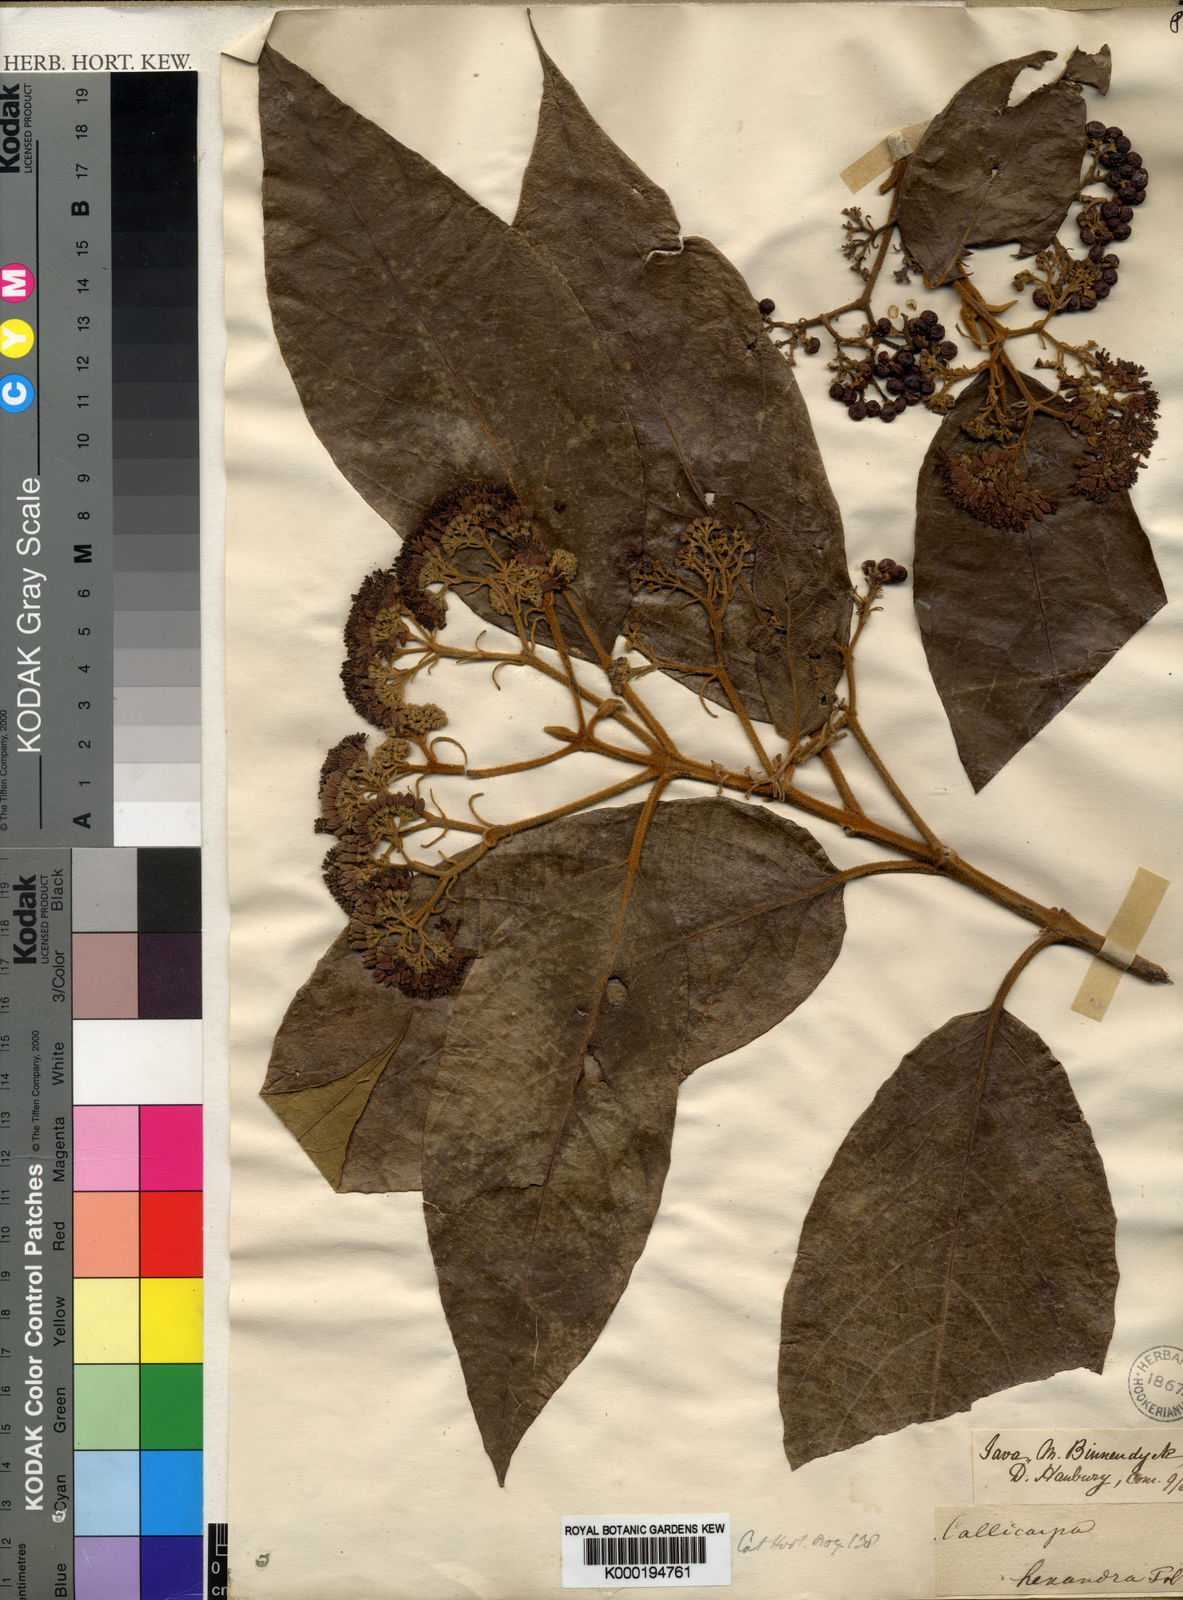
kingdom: Plantae
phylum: Tracheophyta
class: Magnoliopsida
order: Lamiales
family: Lamiaceae
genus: Callicarpa
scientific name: Callicarpa pentandra
